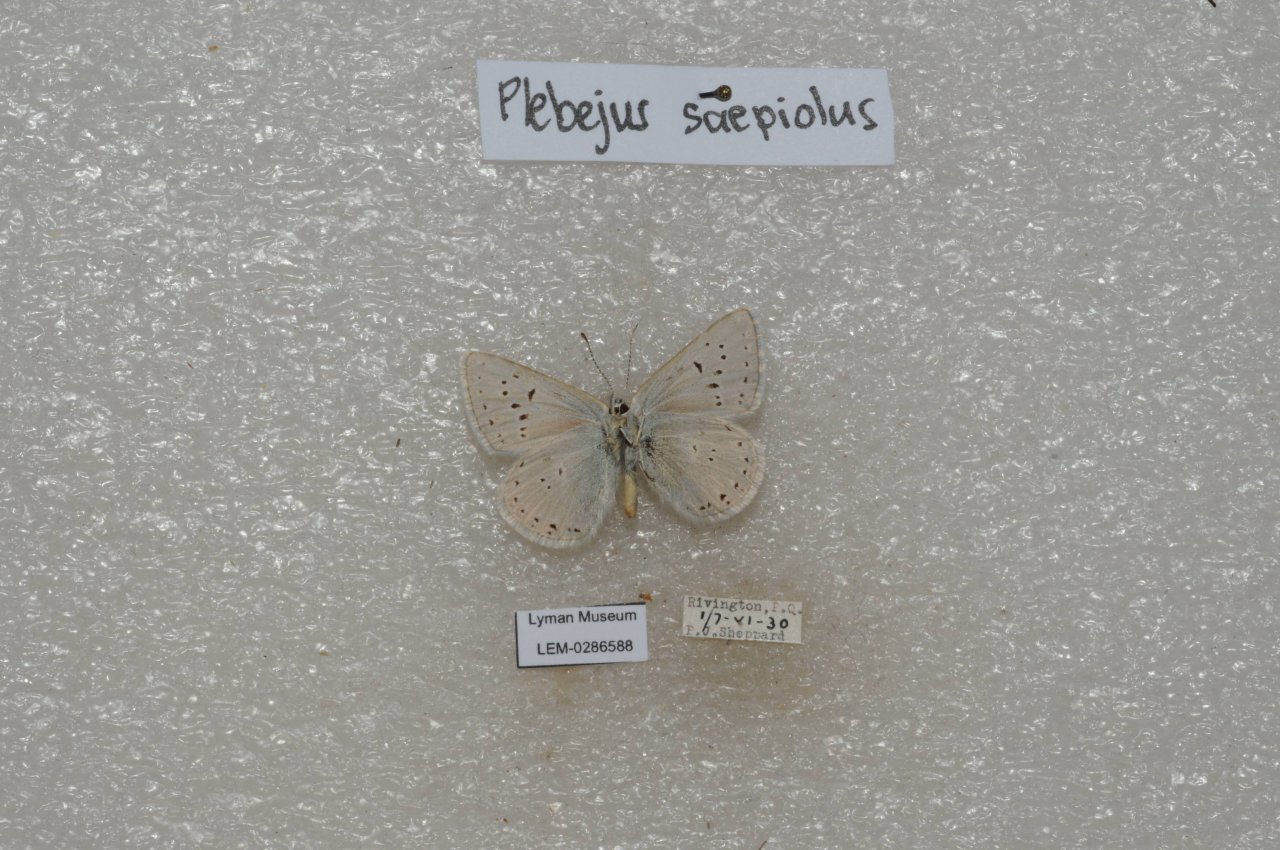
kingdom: Animalia
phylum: Arthropoda
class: Insecta
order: Lepidoptera
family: Lycaenidae
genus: Plebejus
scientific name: Plebejus saepiolus
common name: Greenish Blue
